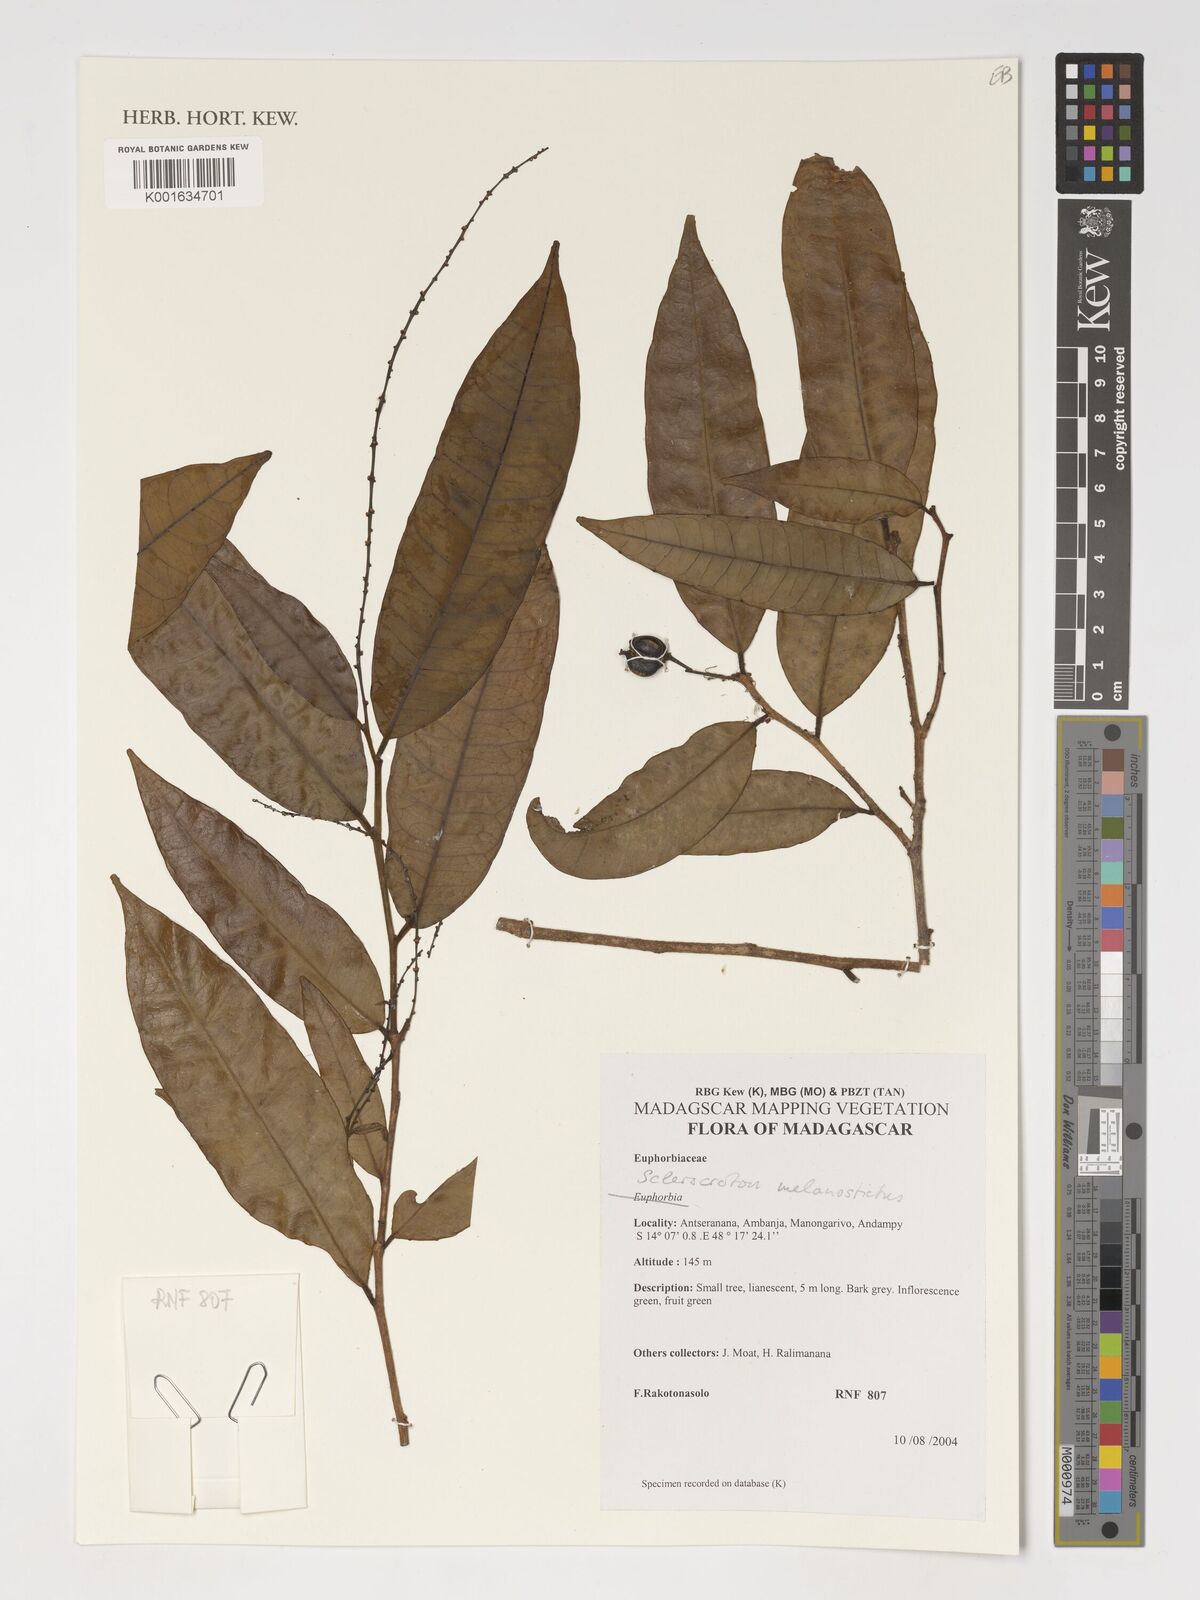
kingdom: Plantae
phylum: Tracheophyta
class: Magnoliopsida
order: Malpighiales
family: Euphorbiaceae
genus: Sclerocroton
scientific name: Sclerocroton melanostictus
